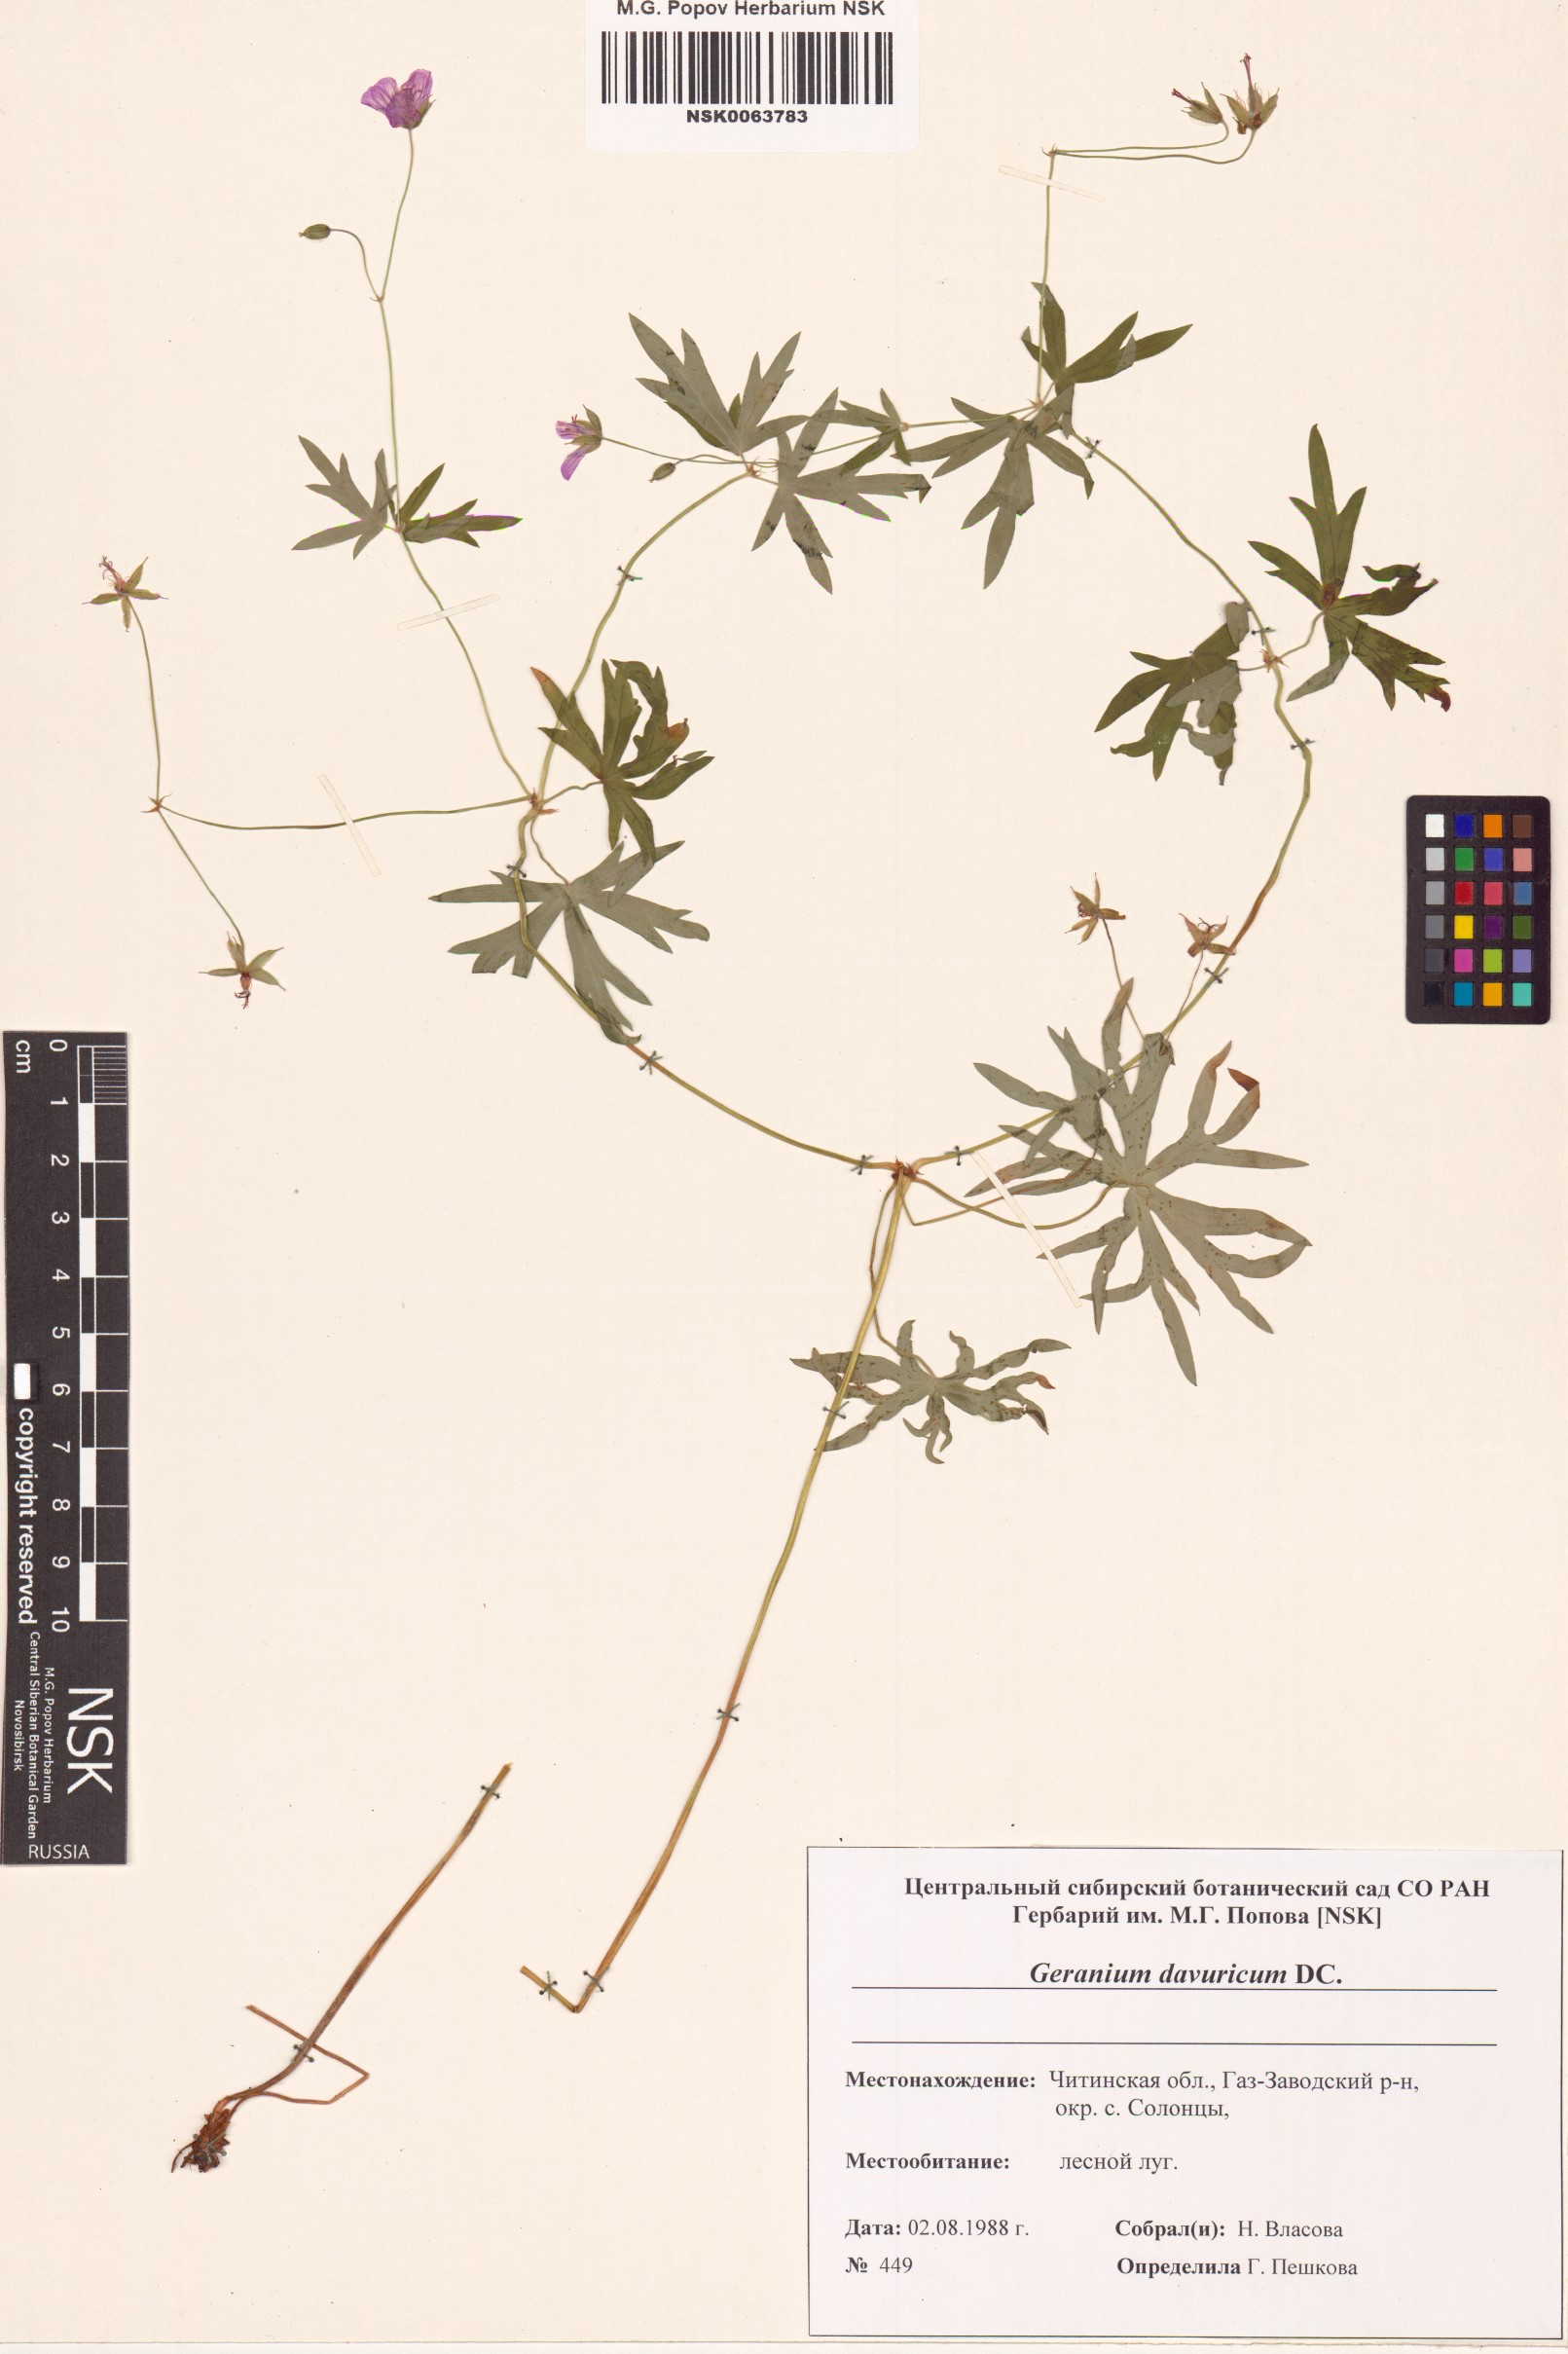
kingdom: Plantae
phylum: Tracheophyta
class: Magnoliopsida
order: Geraniales
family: Geraniaceae
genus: Geranium
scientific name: Geranium dahuricum
